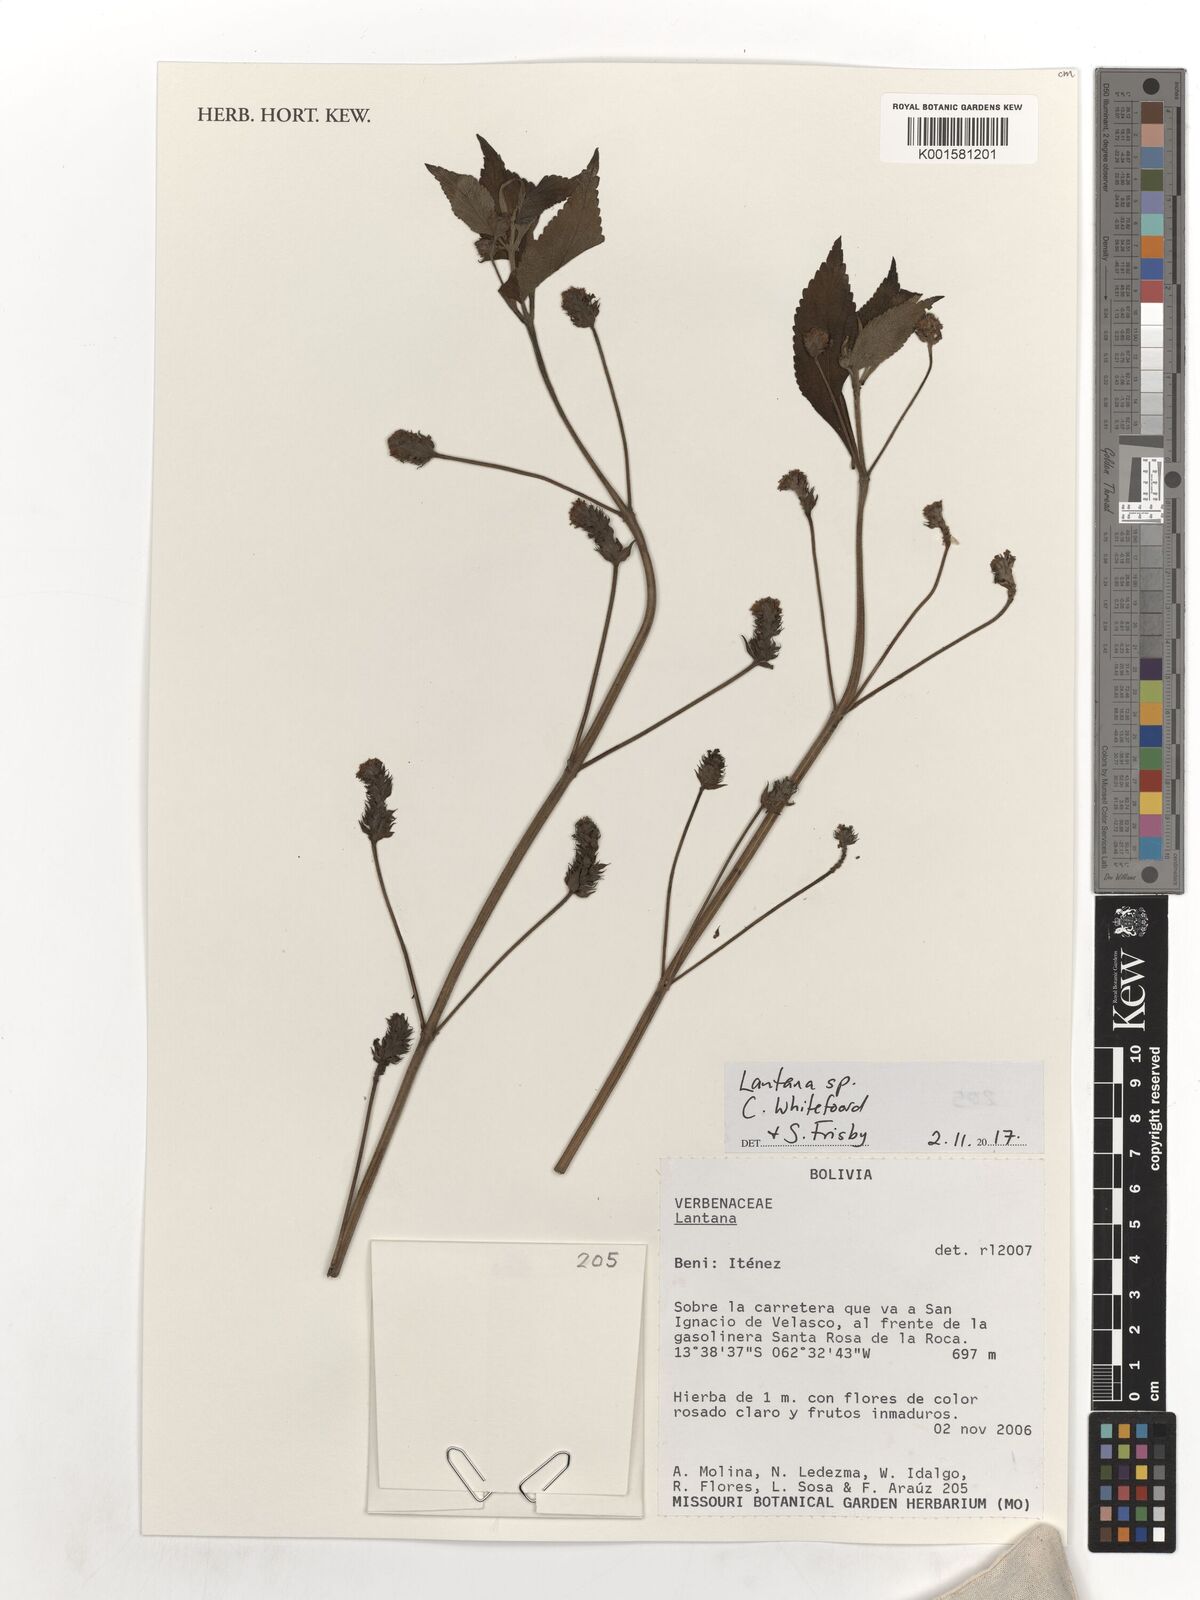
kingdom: Plantae
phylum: Tracheophyta
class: Magnoliopsida
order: Lamiales
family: Verbenaceae
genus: Lantana
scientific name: Lantana
